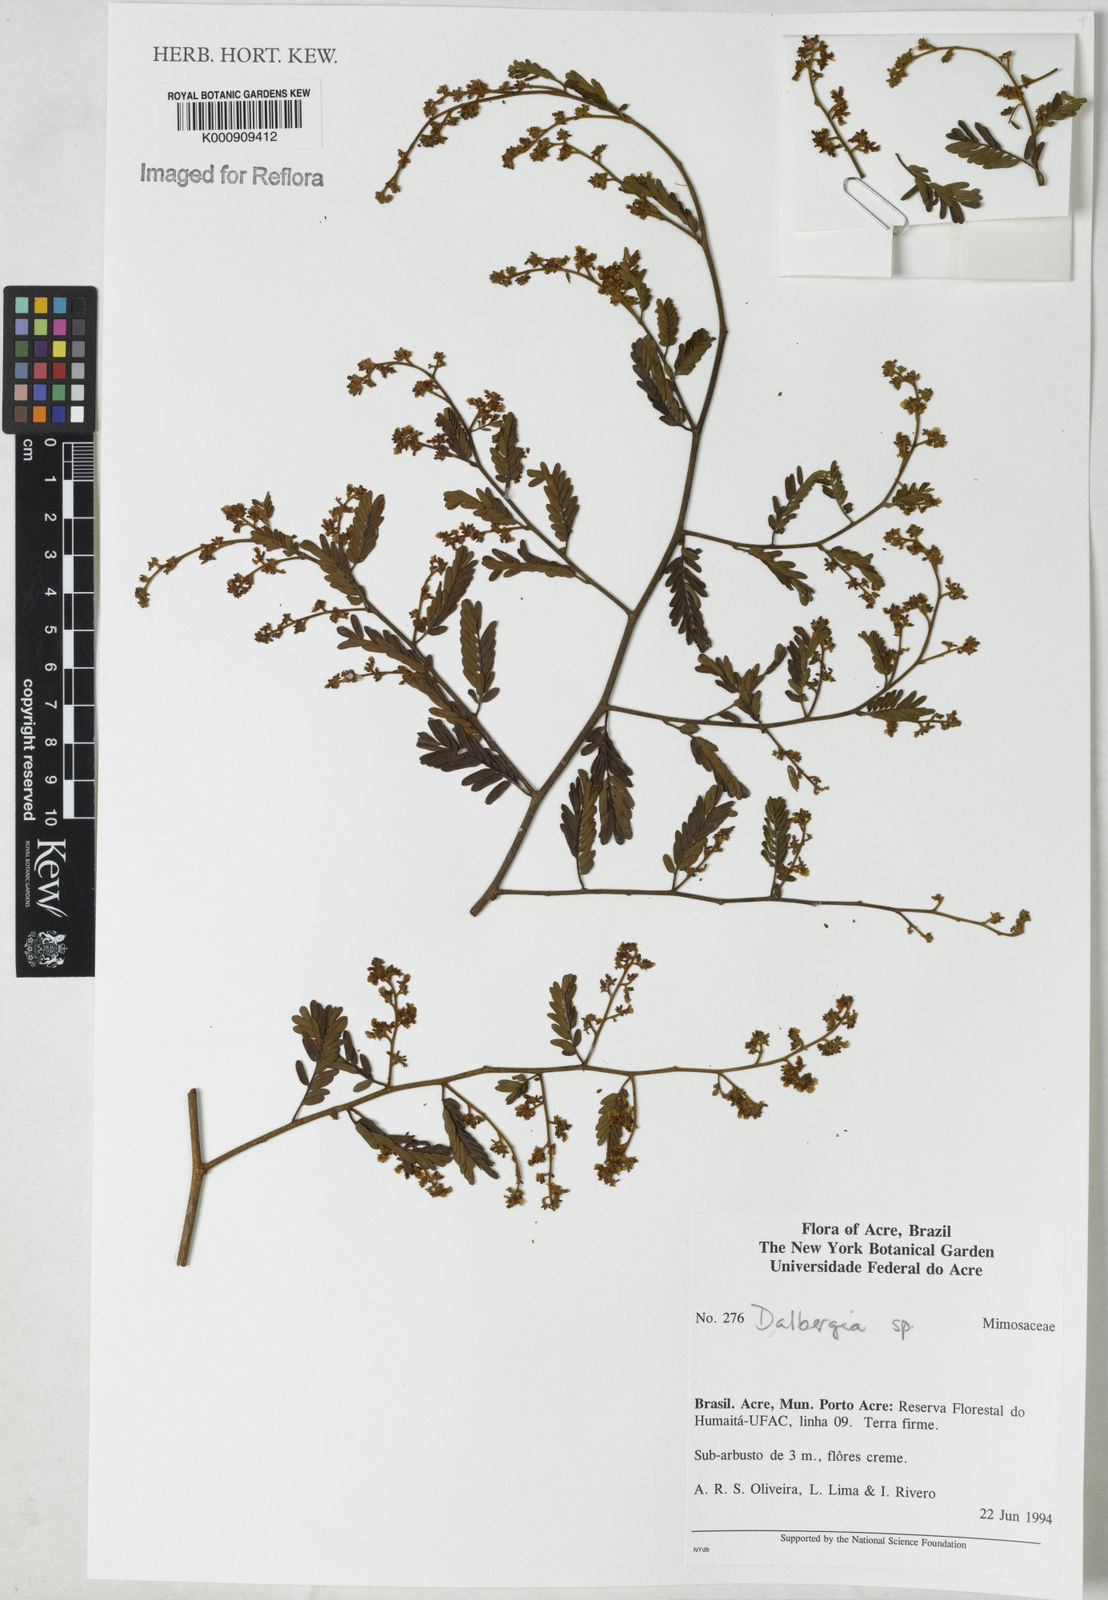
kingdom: Plantae
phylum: Tracheophyta
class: Magnoliopsida
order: Fabales
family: Fabaceae
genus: Dalbergia
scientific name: Dalbergia
